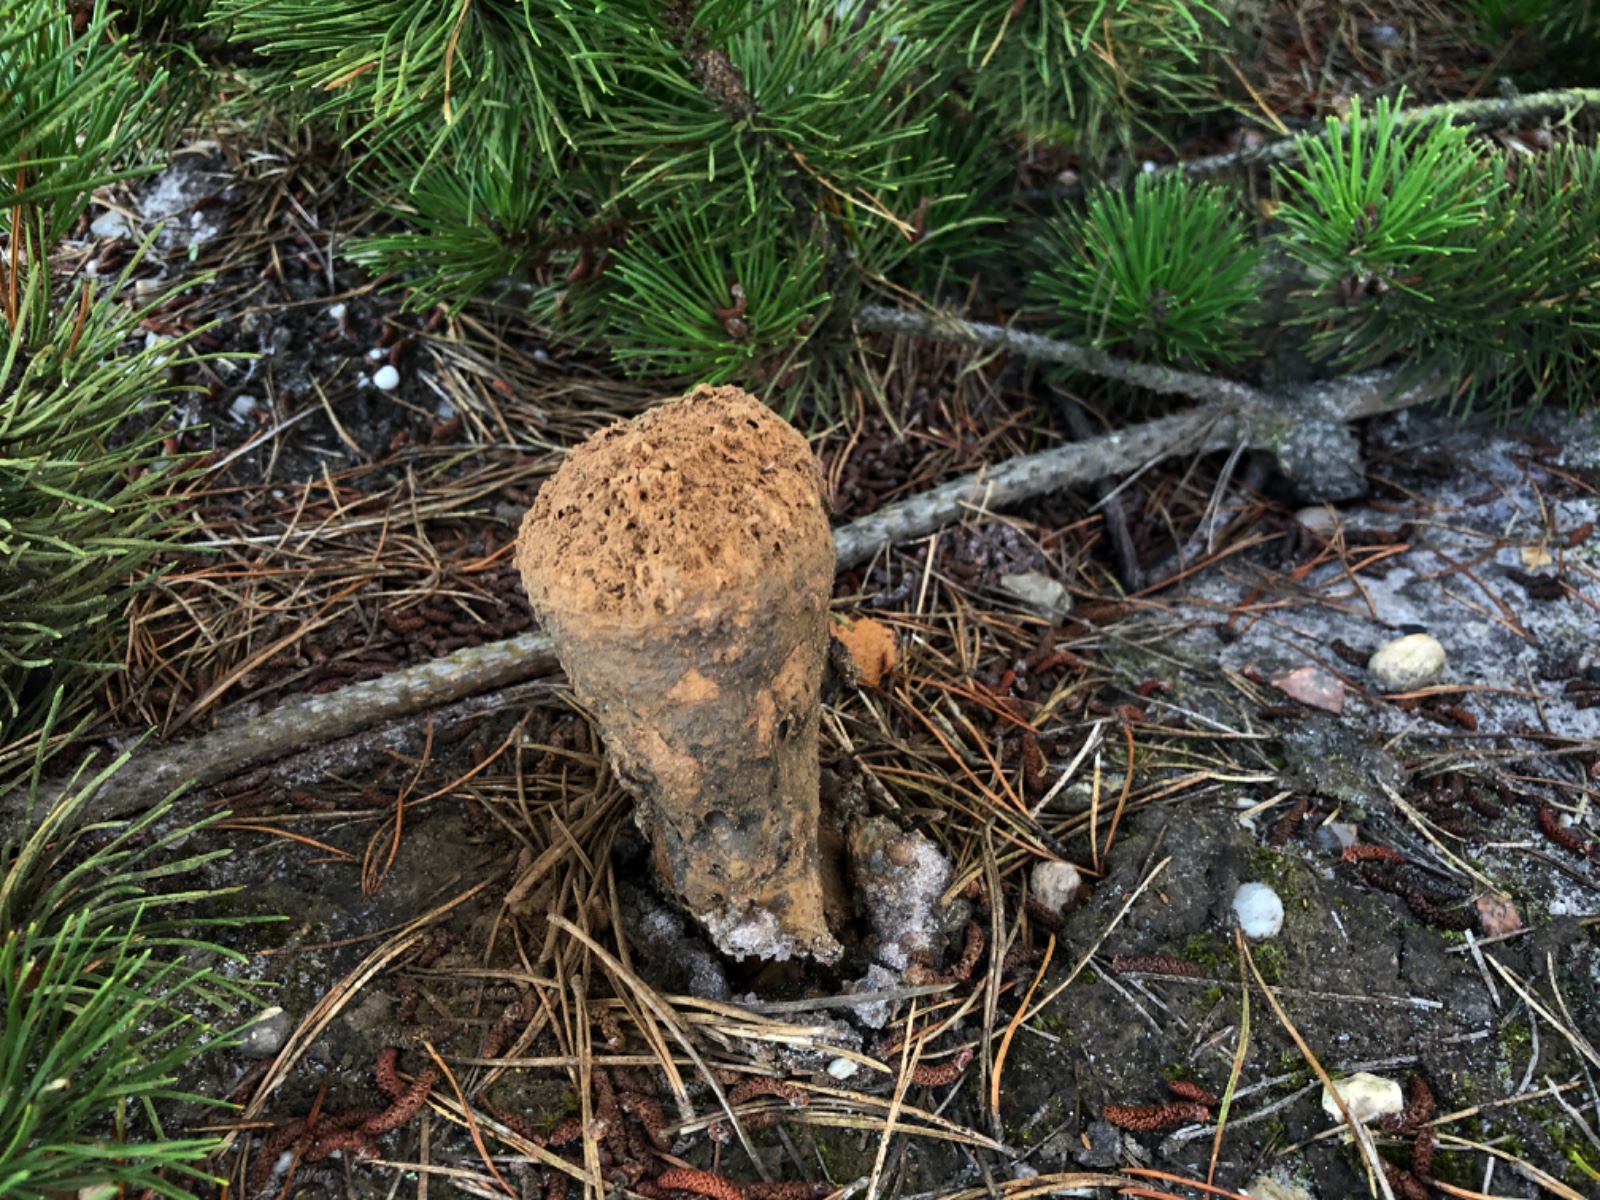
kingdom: Fungi
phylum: Basidiomycota
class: Agaricomycetes
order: Boletales
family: Sclerodermataceae
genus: Pisolithus
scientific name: Pisolithus capsulifer
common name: farvebold
